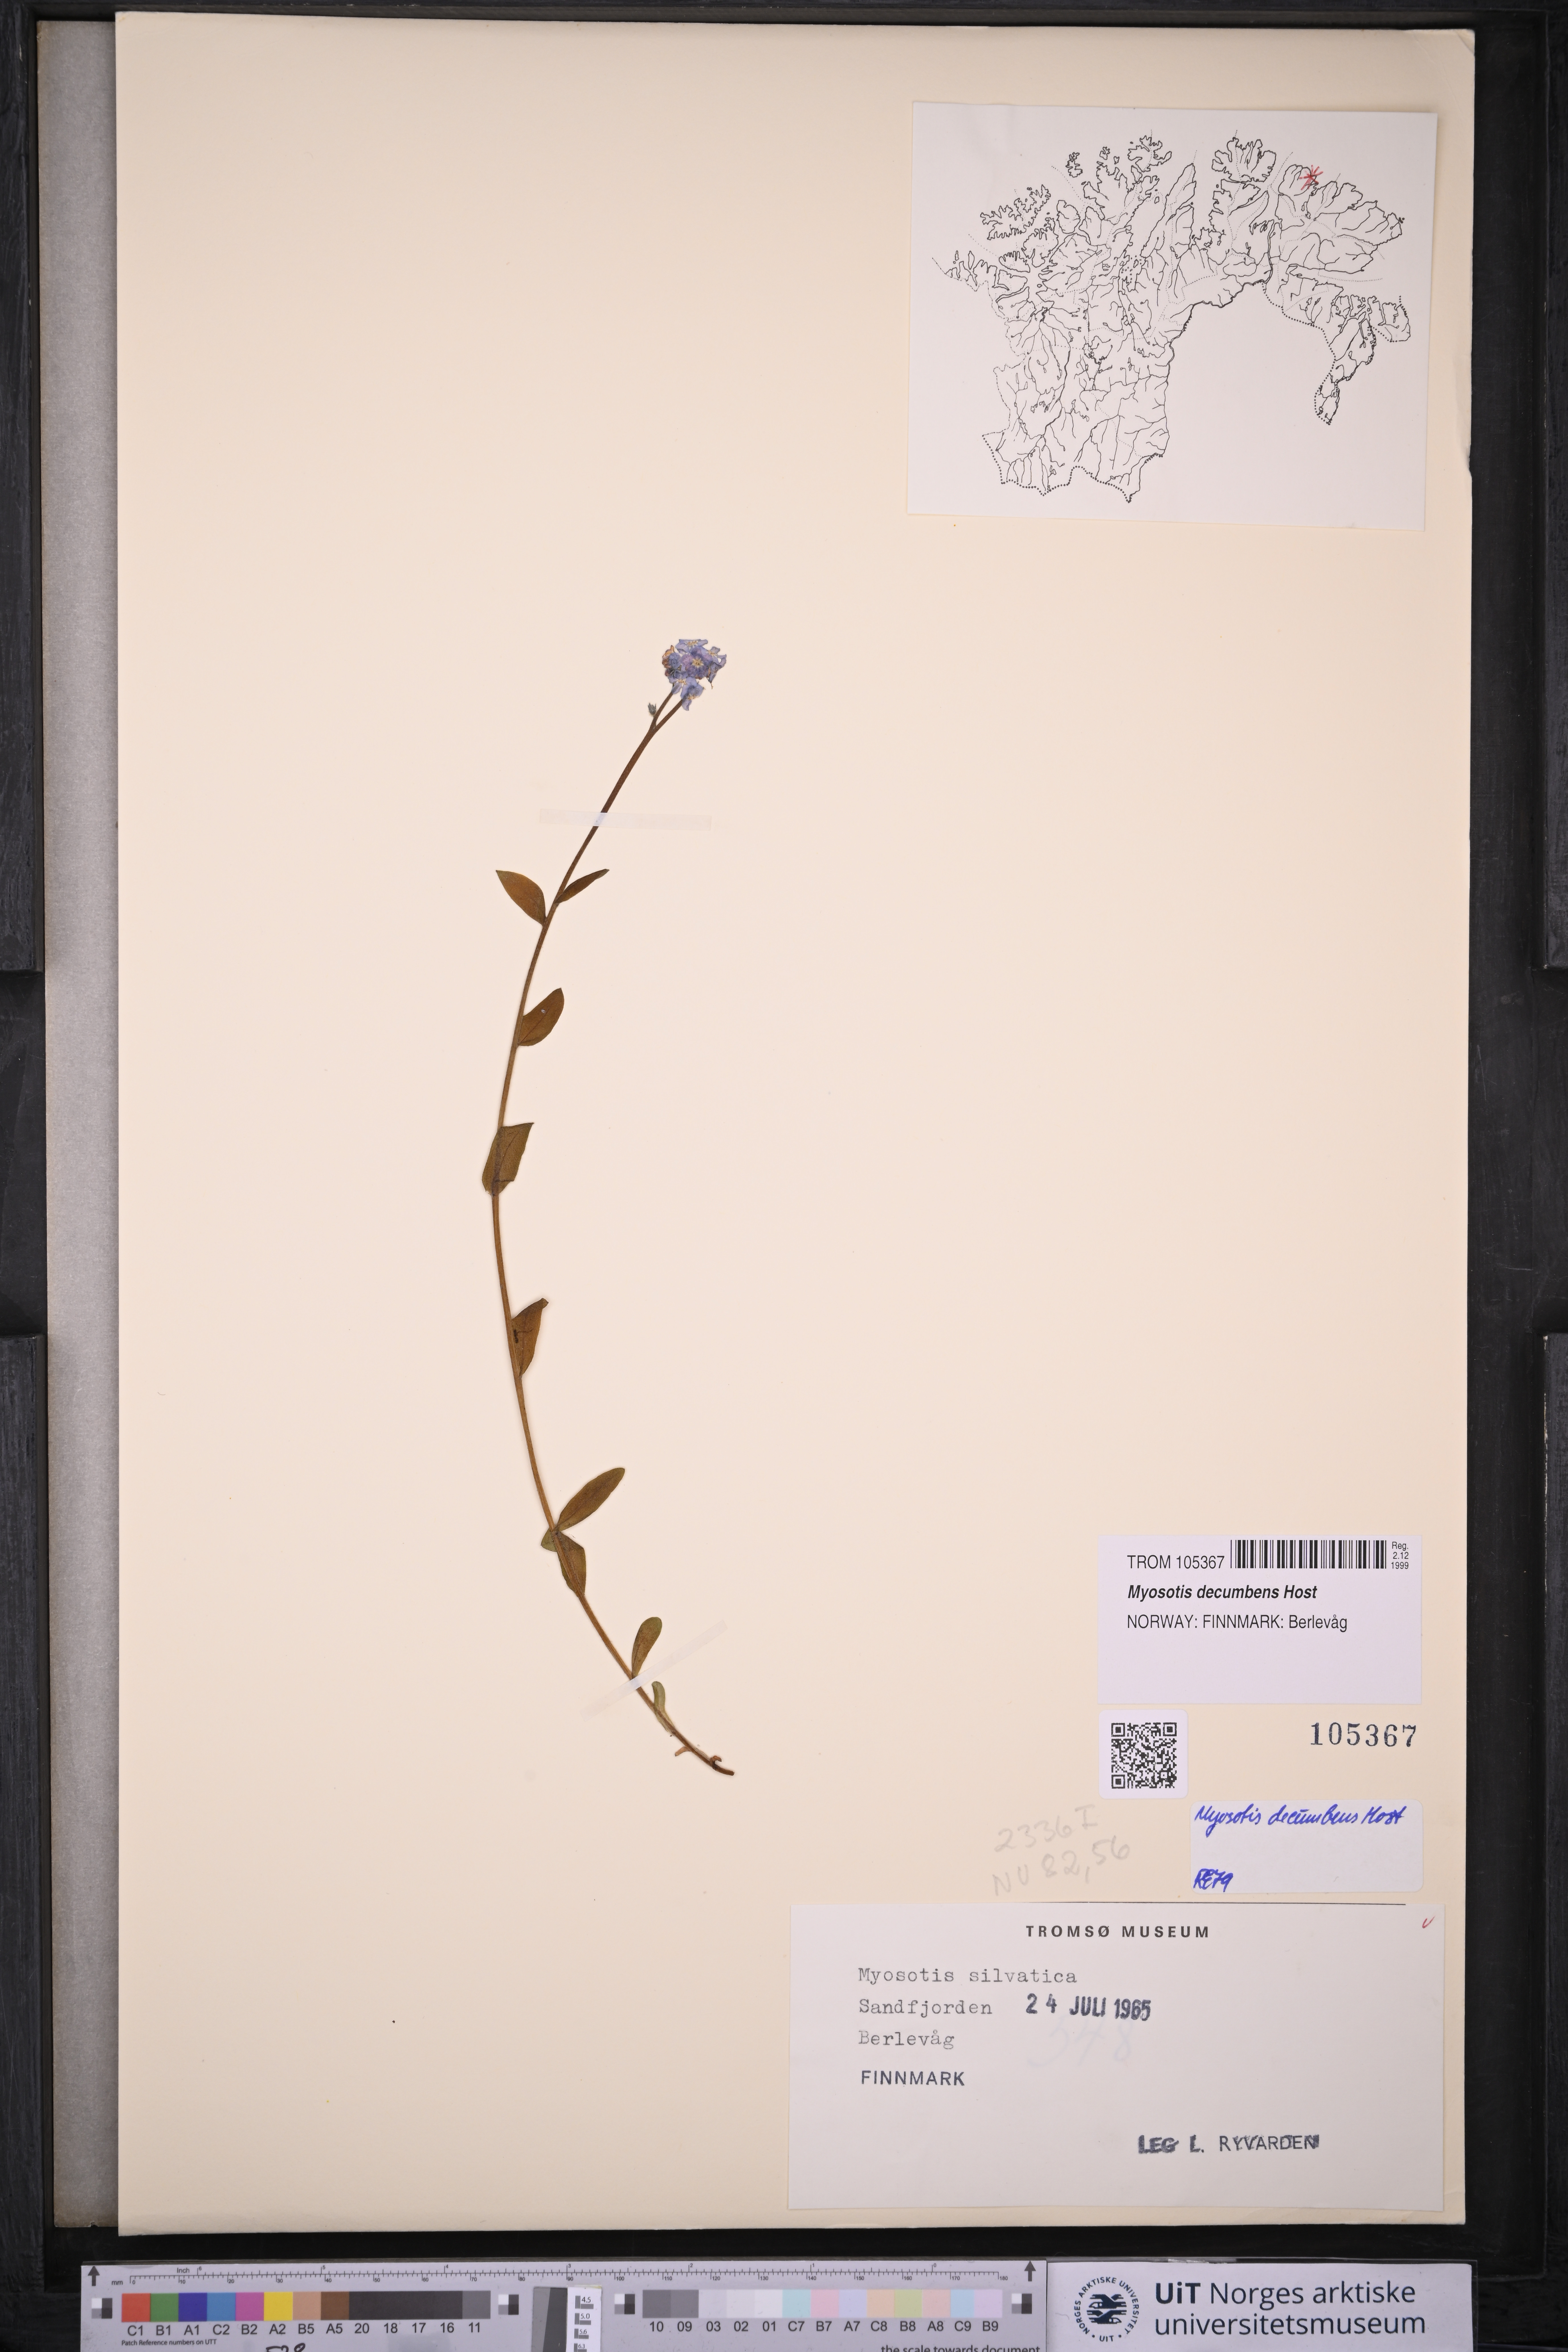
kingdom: Plantae
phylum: Tracheophyta
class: Magnoliopsida
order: Boraginales
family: Boraginaceae
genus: Myosotis
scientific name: Myosotis decumbens
